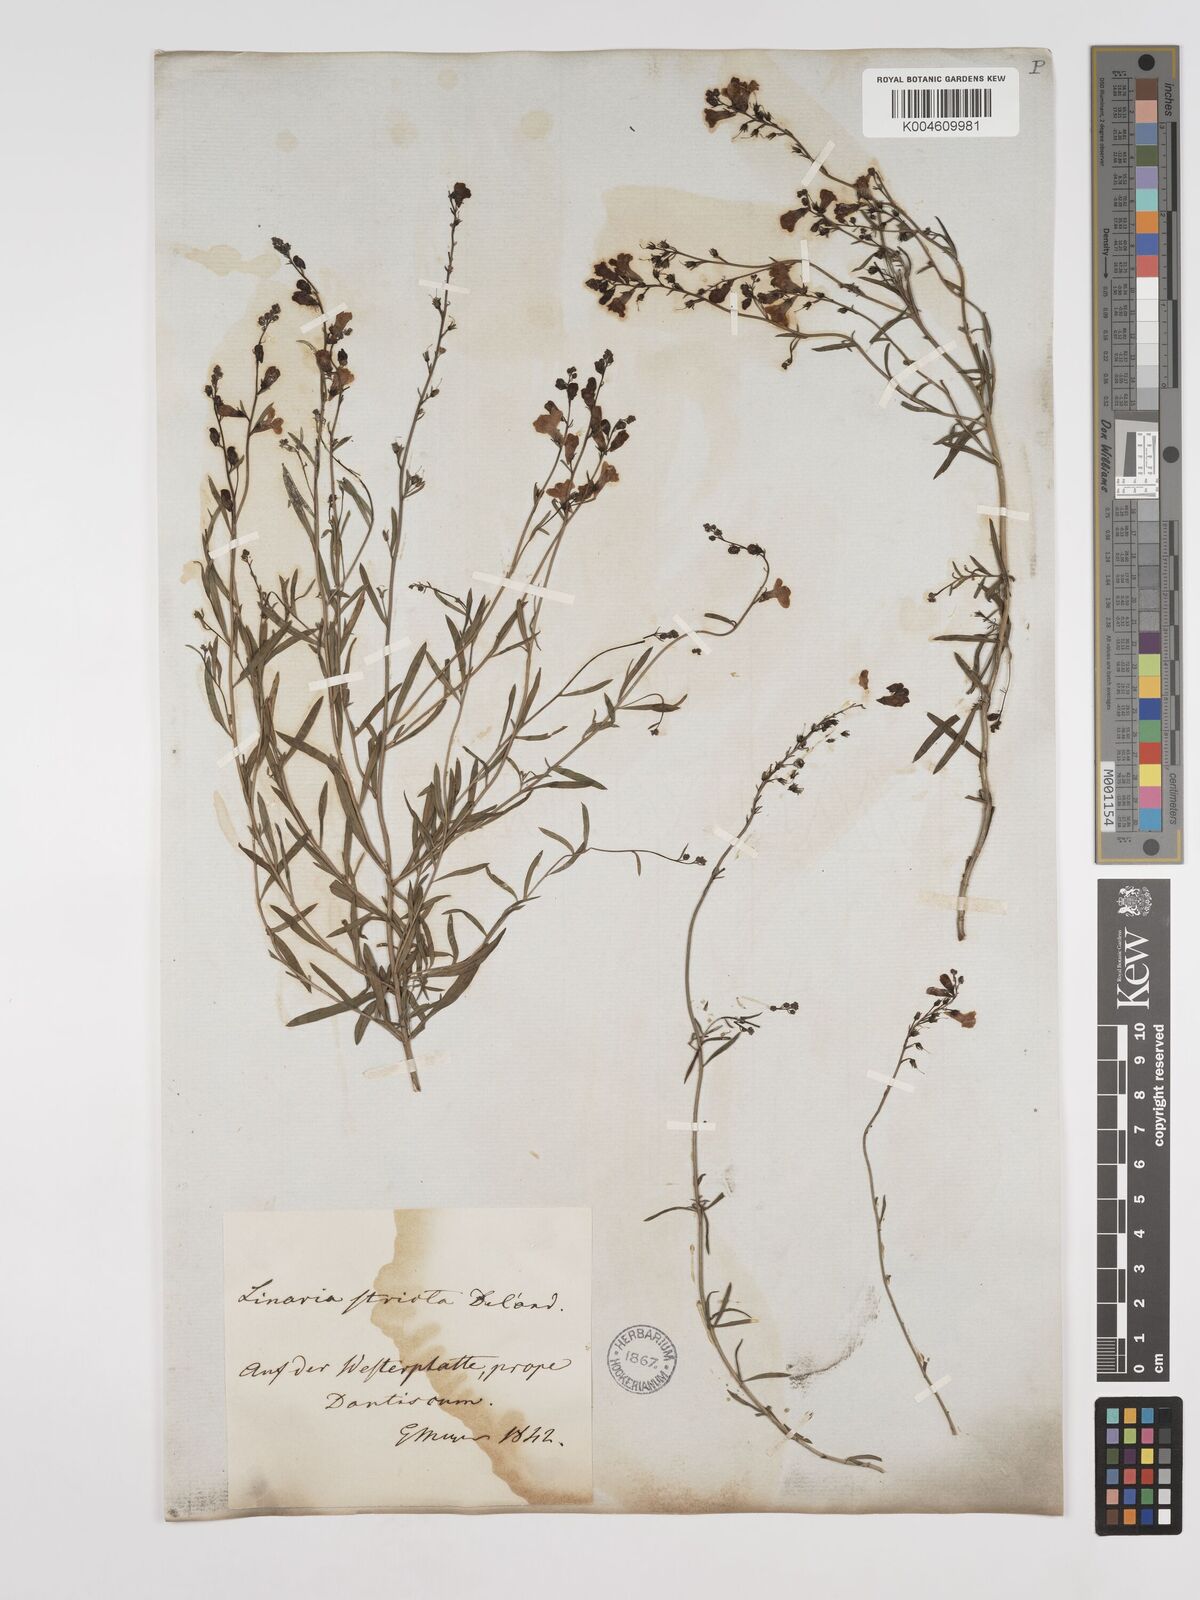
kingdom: Plantae
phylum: Tracheophyta
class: Magnoliopsida
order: Lamiales
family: Plantaginaceae
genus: Linaria
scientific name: Linaria
